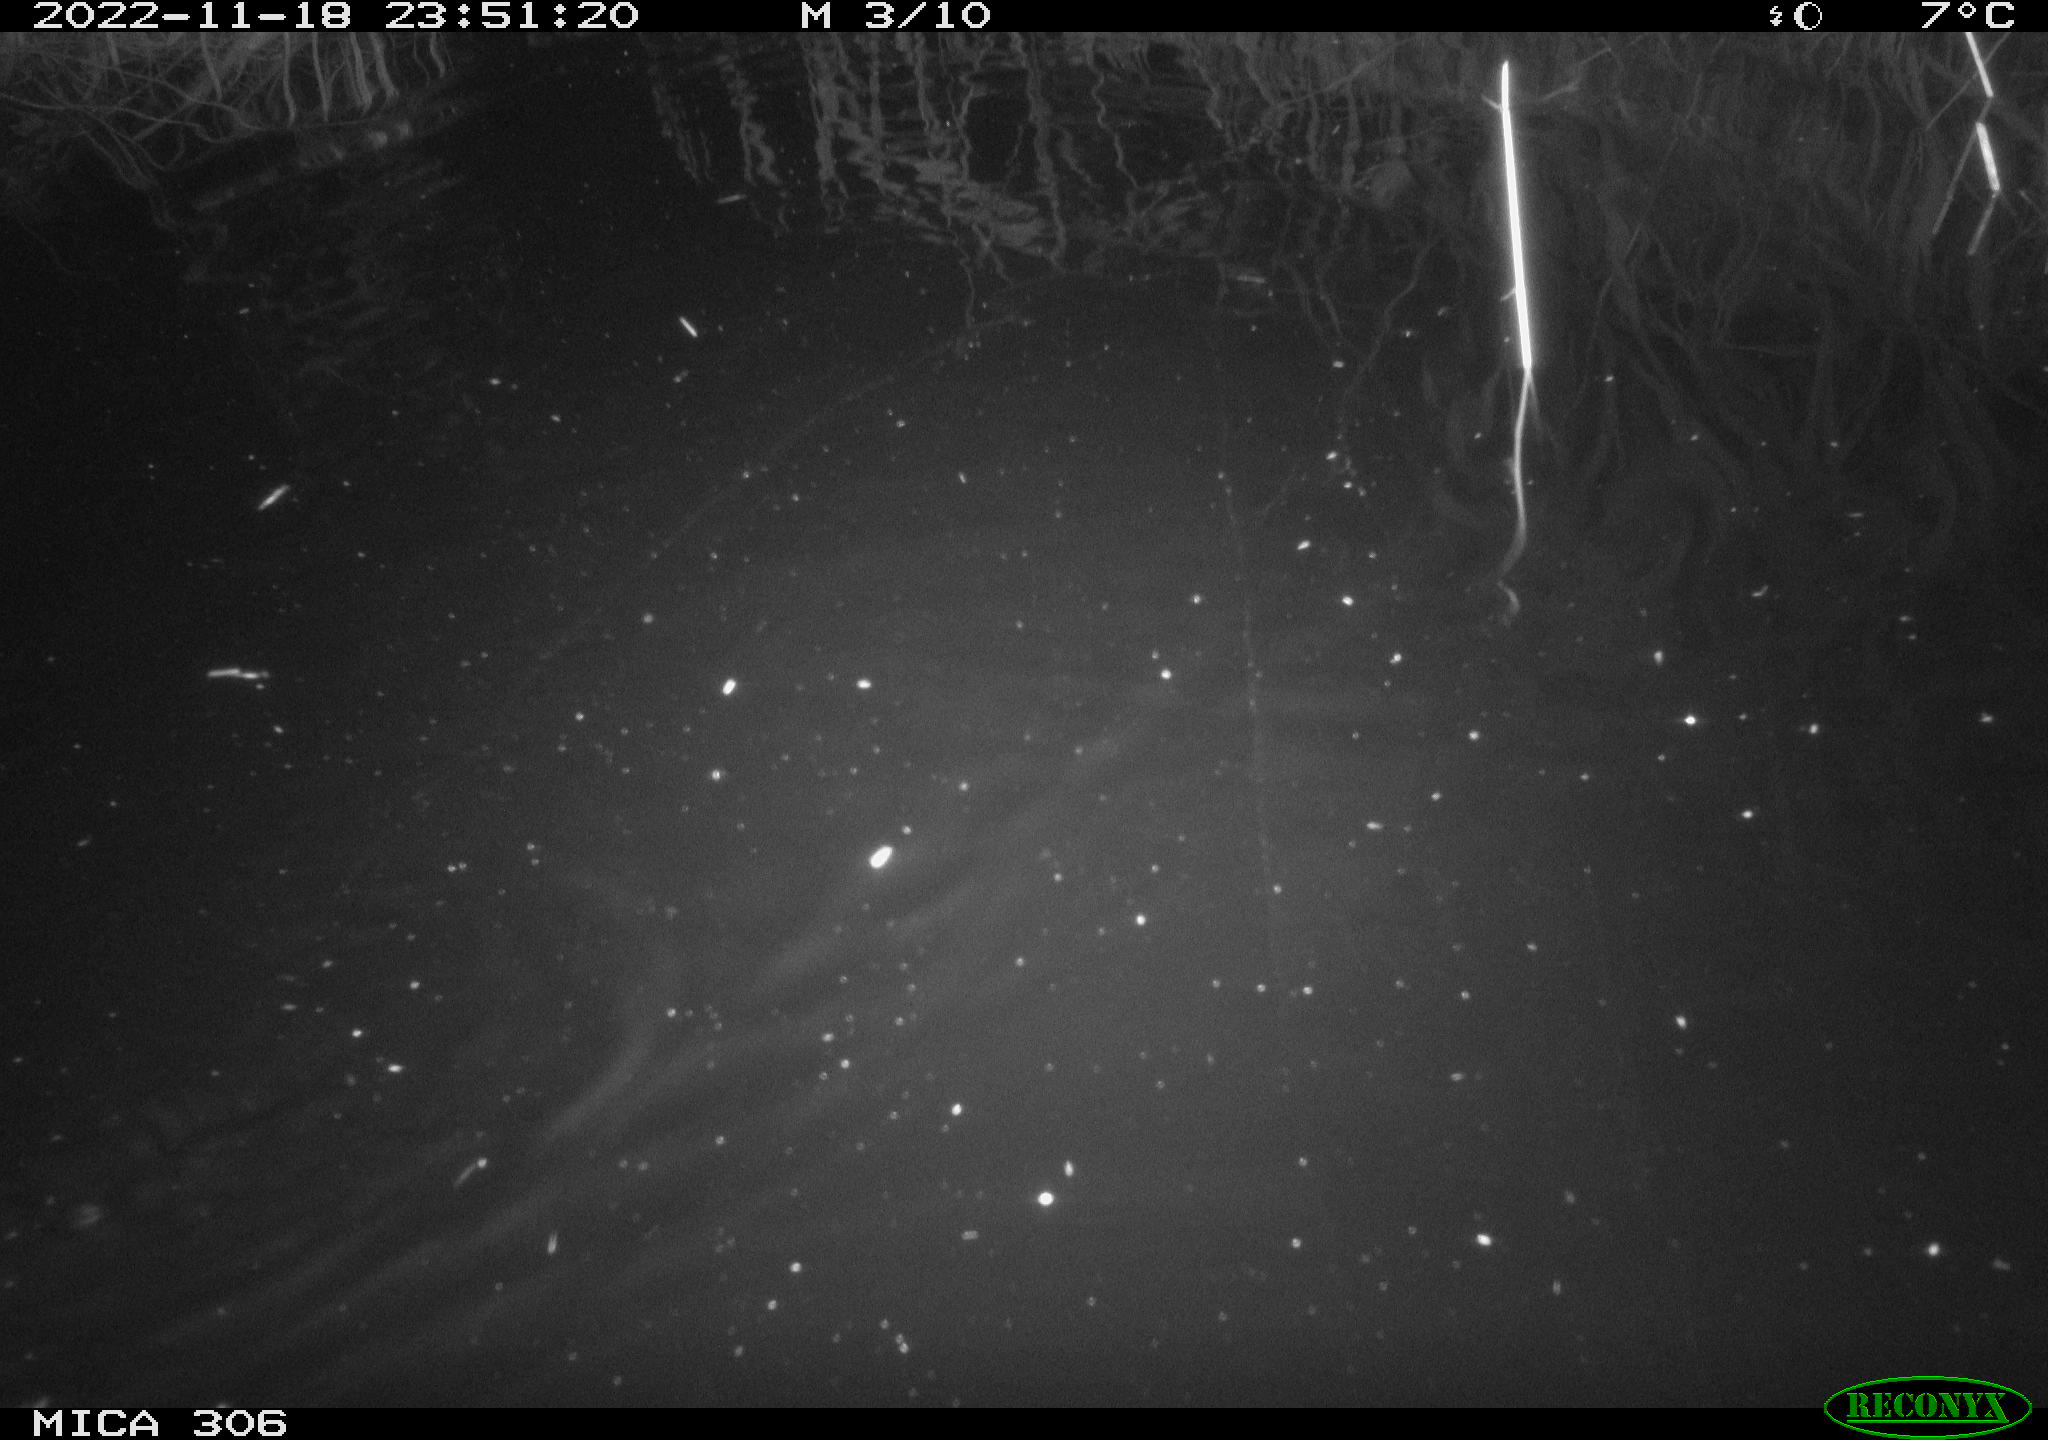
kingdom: Animalia
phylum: Chordata
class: Mammalia
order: Rodentia
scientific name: Rodentia
